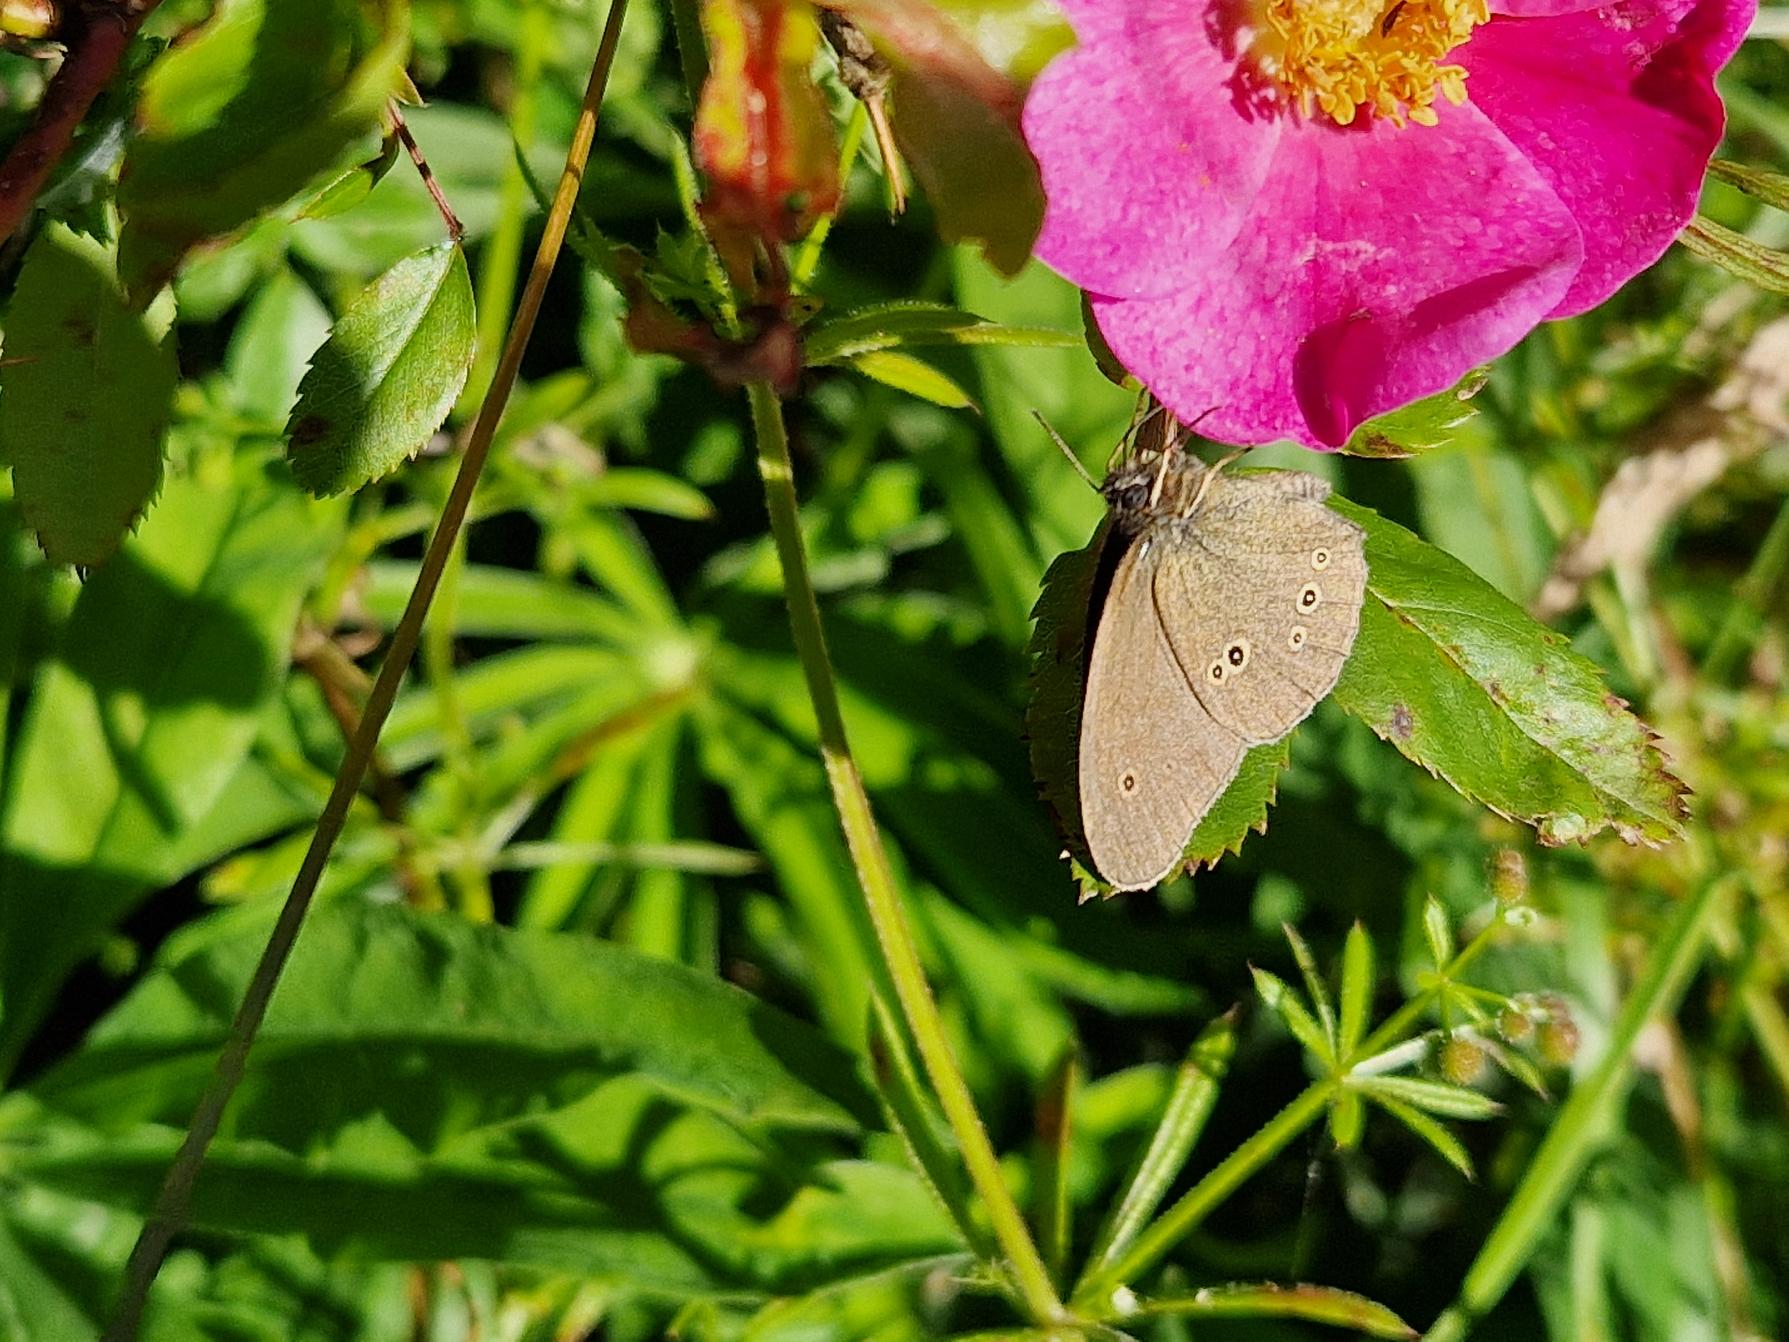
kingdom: Animalia
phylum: Arthropoda
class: Insecta
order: Lepidoptera
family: Nymphalidae
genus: Aphantopus
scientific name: Aphantopus hyperantus
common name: Engrandøje
